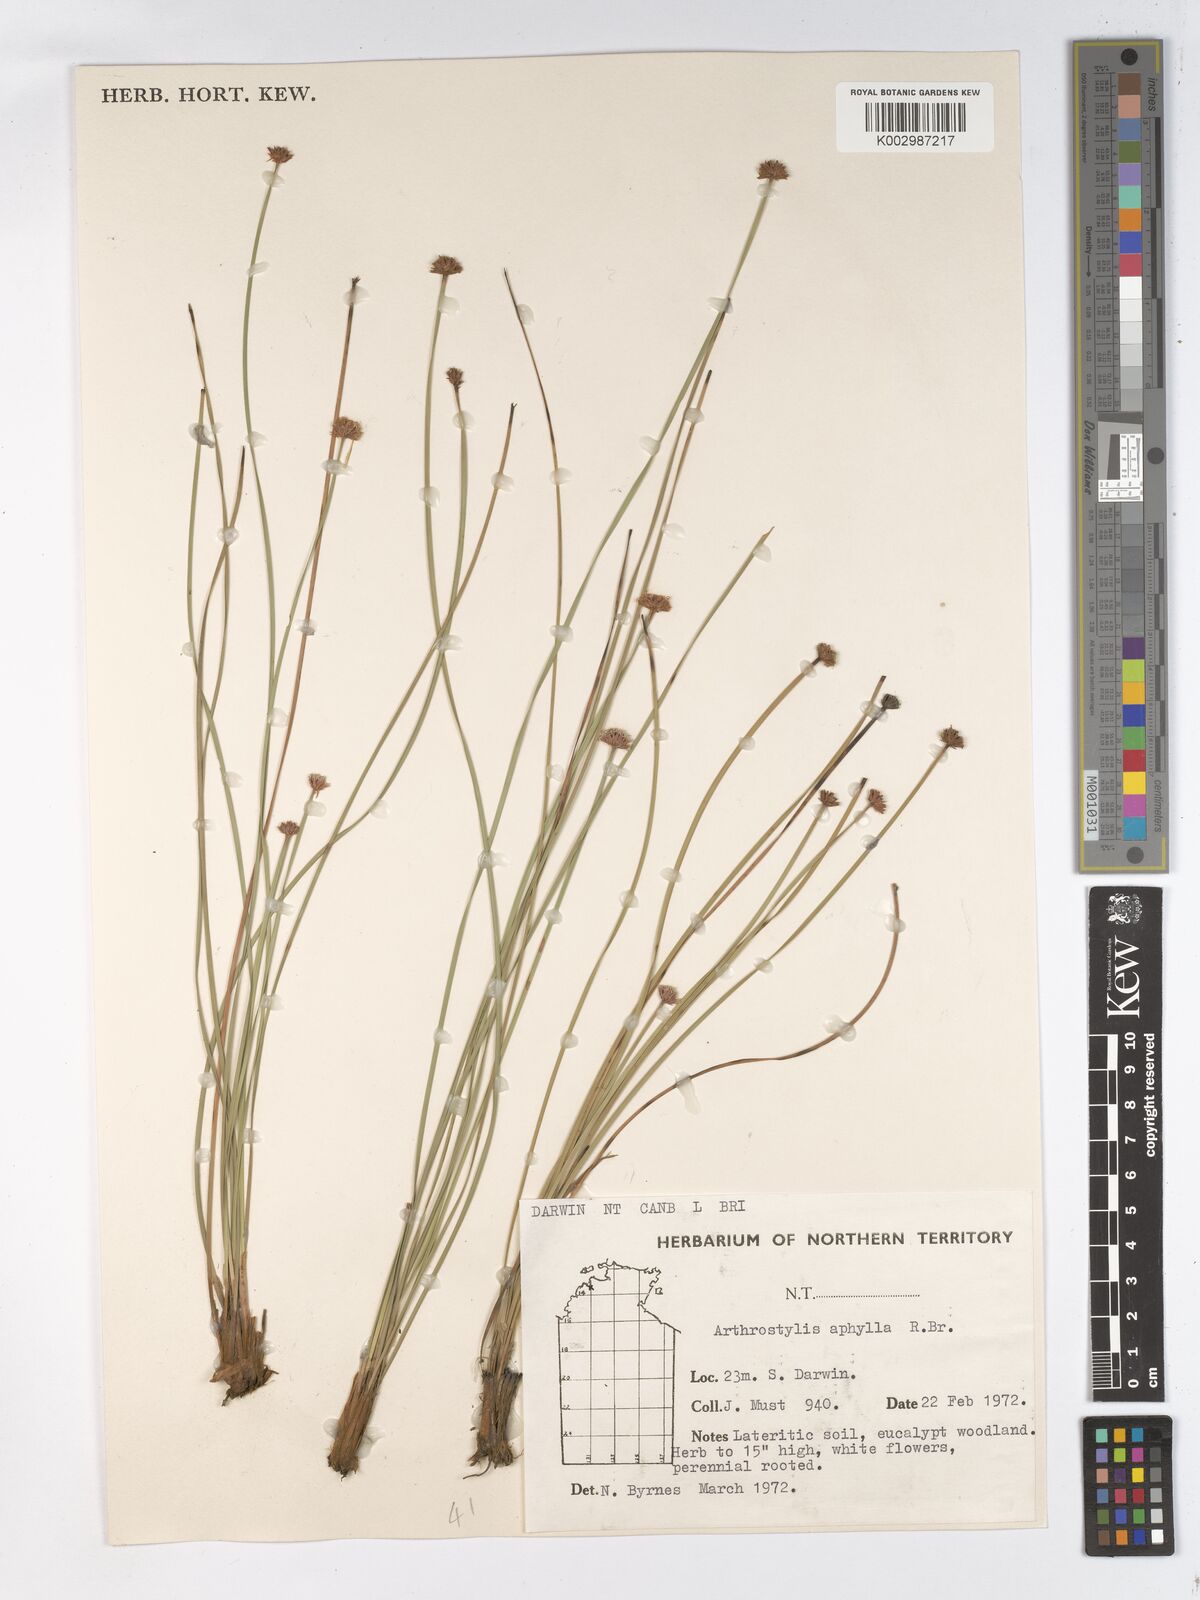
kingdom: Plantae
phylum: Tracheophyta
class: Liliopsida
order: Poales
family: Cyperaceae
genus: Arthrostylis
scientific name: Arthrostylis aphylla
